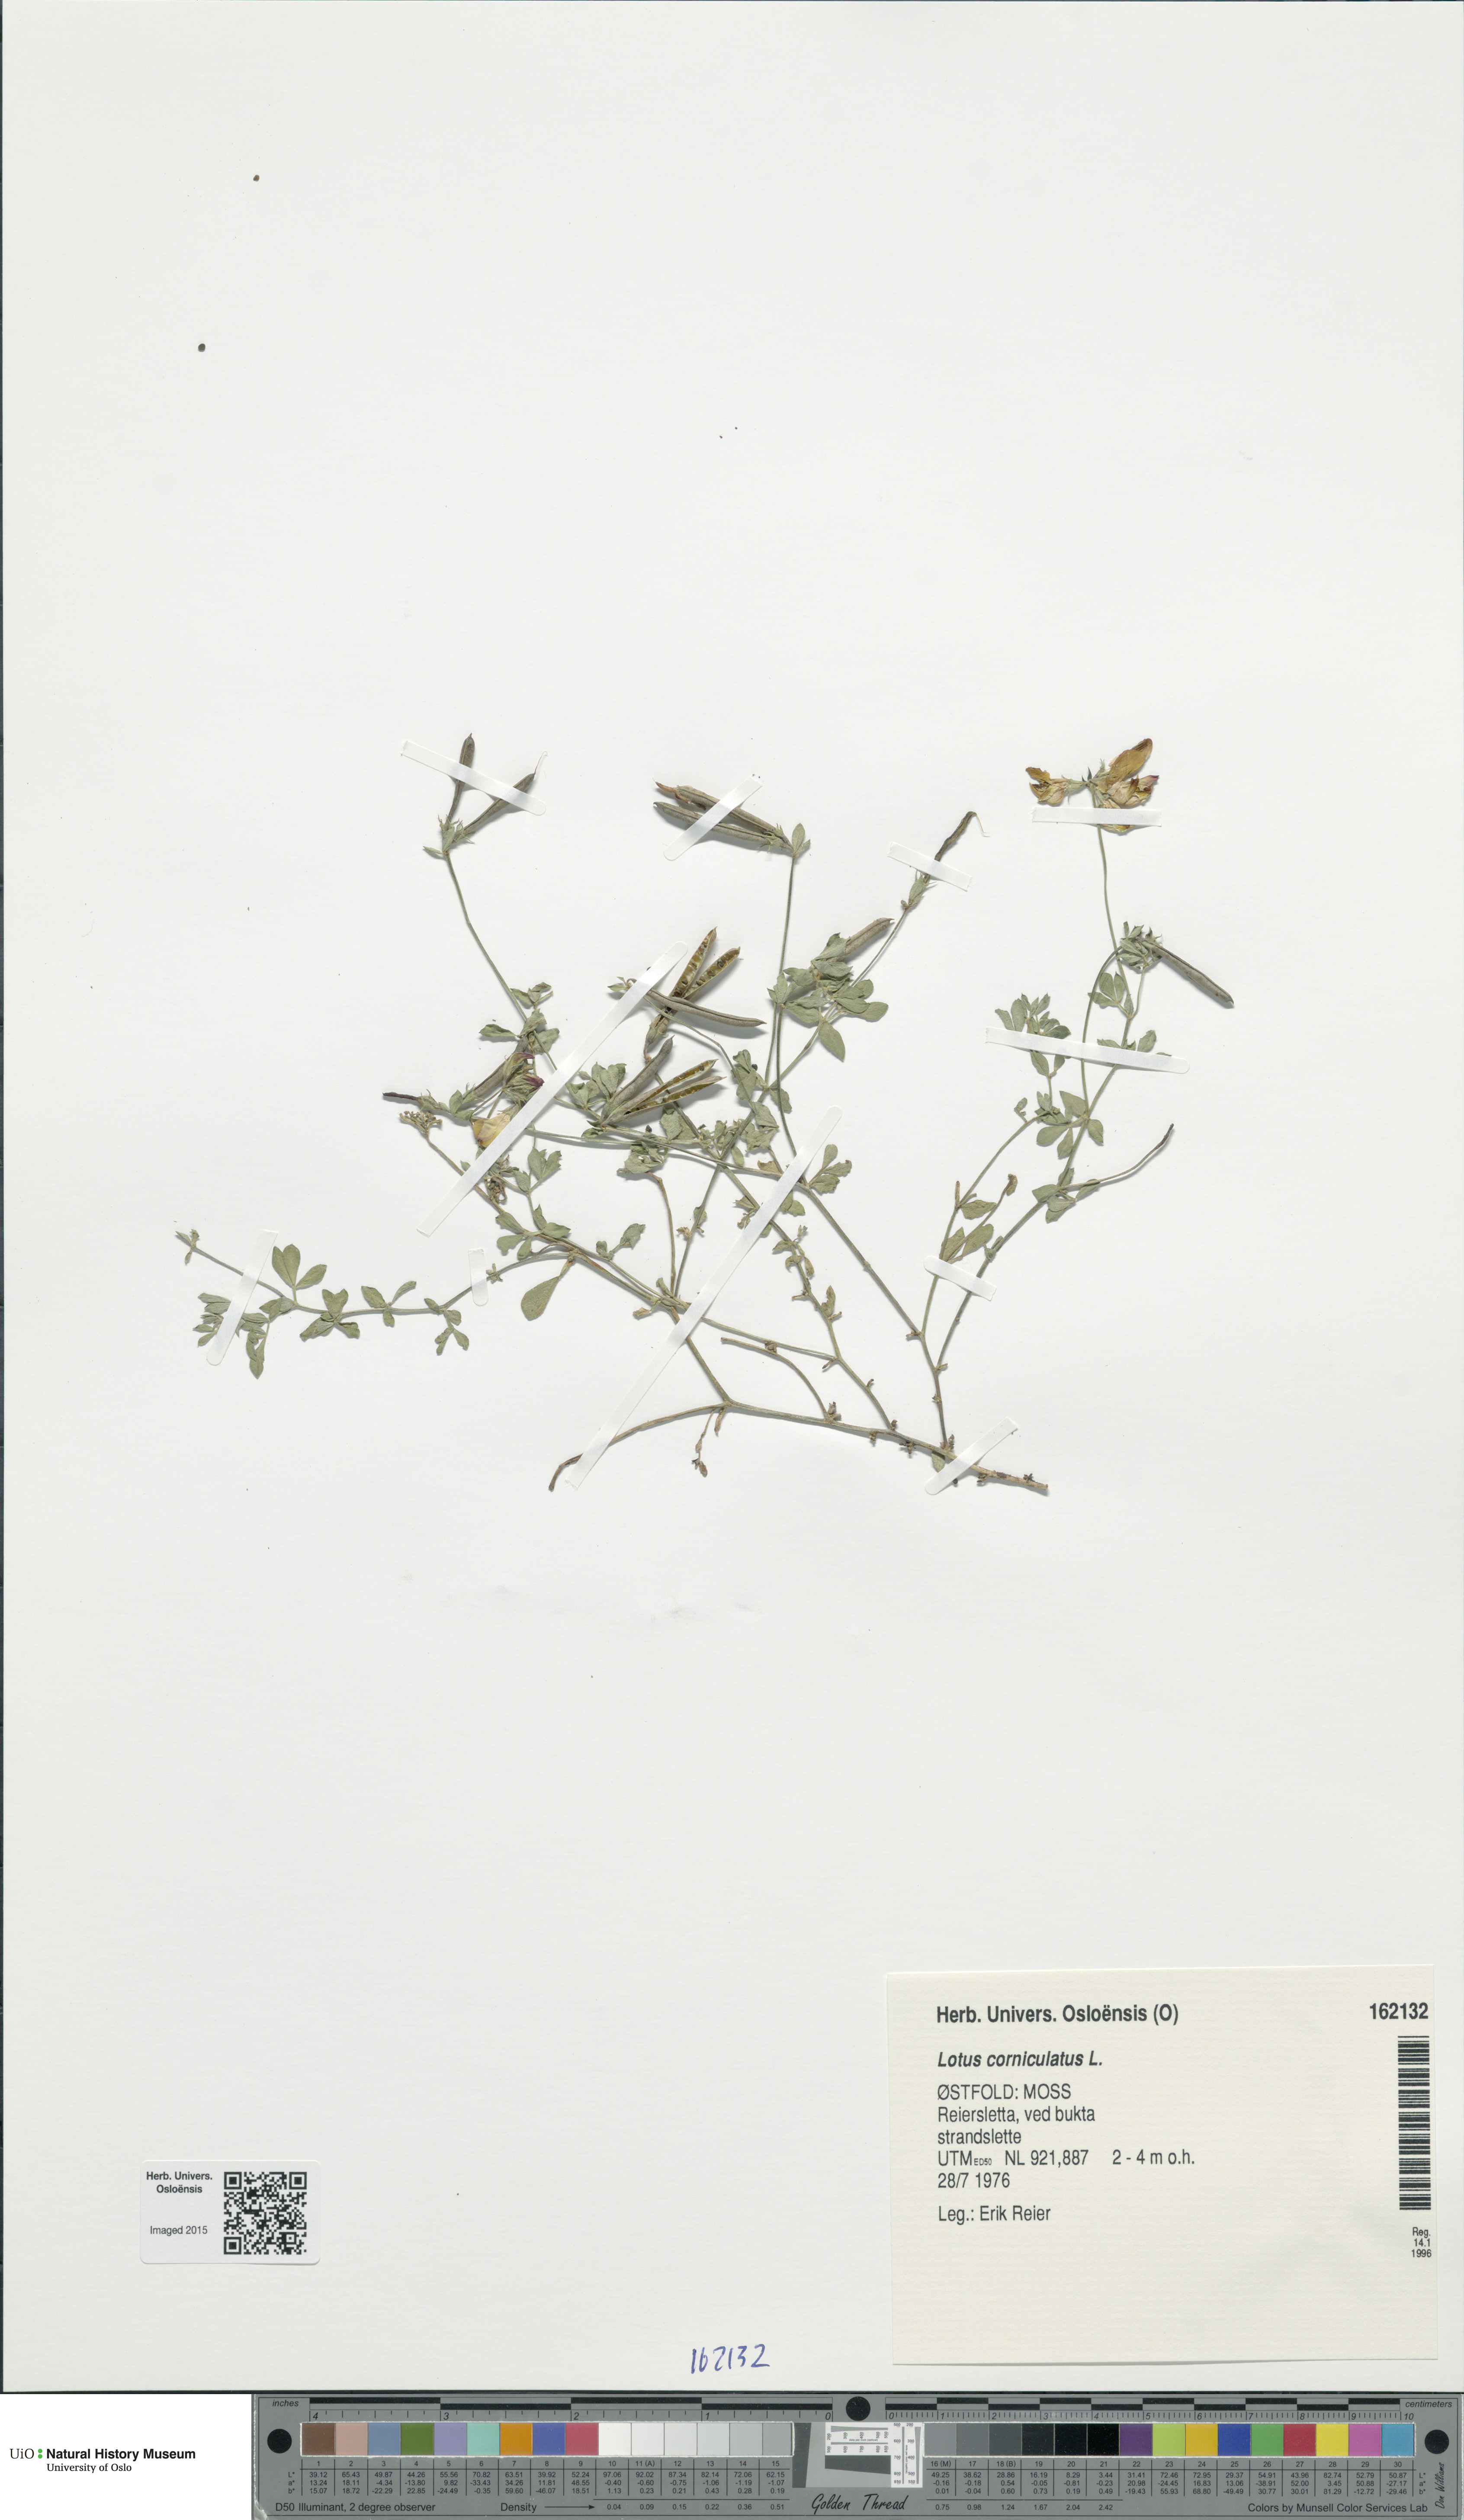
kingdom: Plantae
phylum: Tracheophyta
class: Magnoliopsida
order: Fabales
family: Fabaceae
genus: Lotus
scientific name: Lotus corniculatus
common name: Common bird's-foot-trefoil
